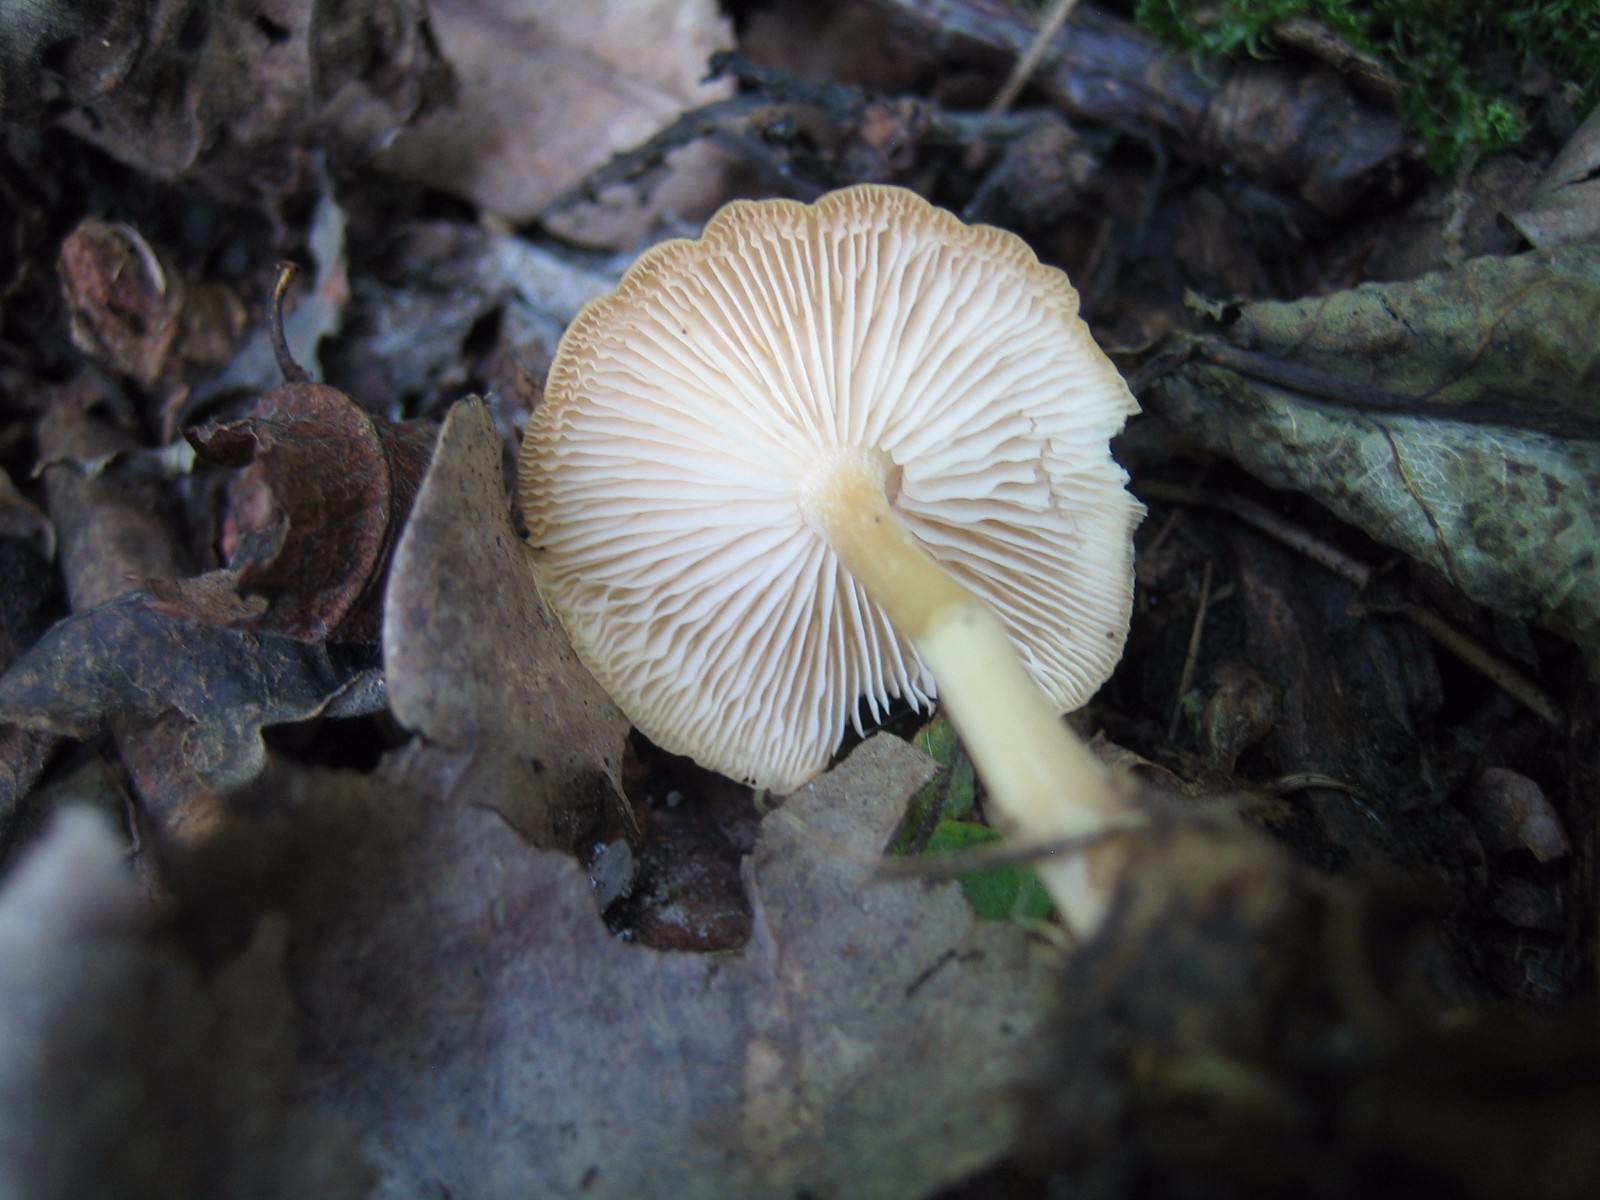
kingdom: Fungi
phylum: Basidiomycota
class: Agaricomycetes
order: Agaricales
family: Omphalotaceae
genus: Gymnopus
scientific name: Gymnopus dryophilus
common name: løv-fladhat
